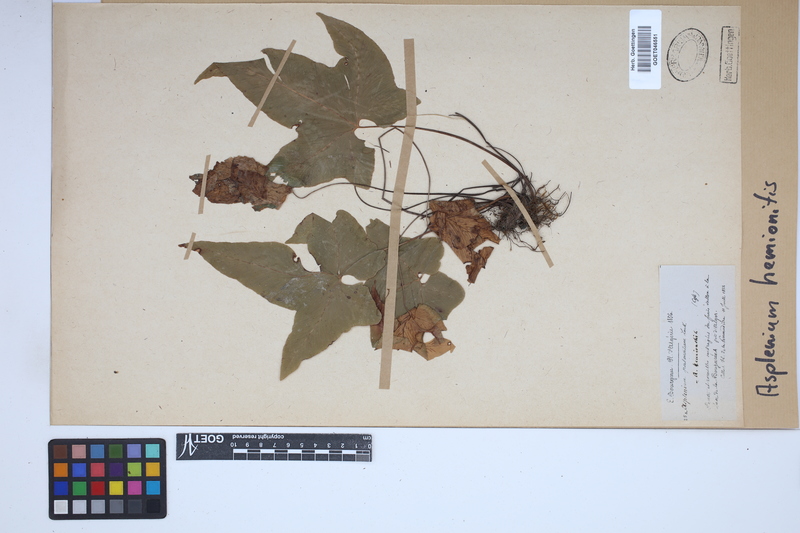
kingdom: Plantae
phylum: Tracheophyta
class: Polypodiopsida
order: Polypodiales
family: Aspleniaceae
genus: Asplenium
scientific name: Asplenium hemionitis
